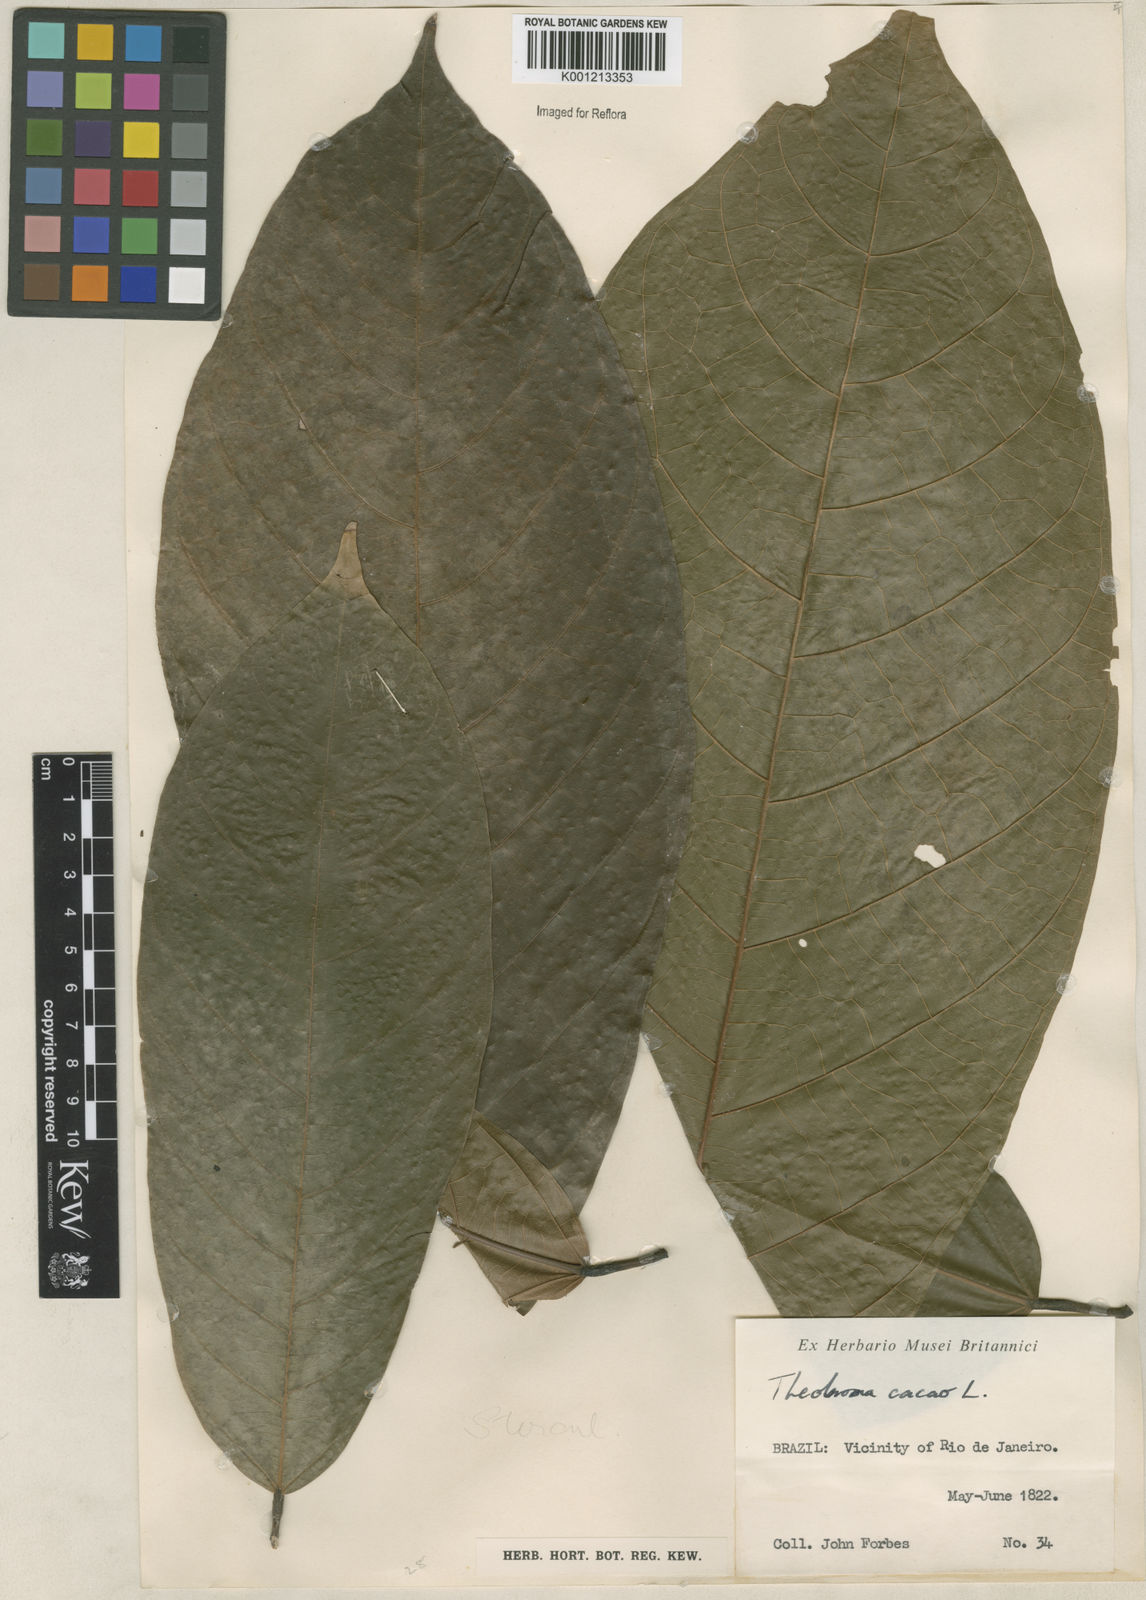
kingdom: Plantae
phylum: Tracheophyta
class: Magnoliopsida
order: Malvales
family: Malvaceae
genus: Theobroma
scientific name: Theobroma cacao
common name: Cocoa
